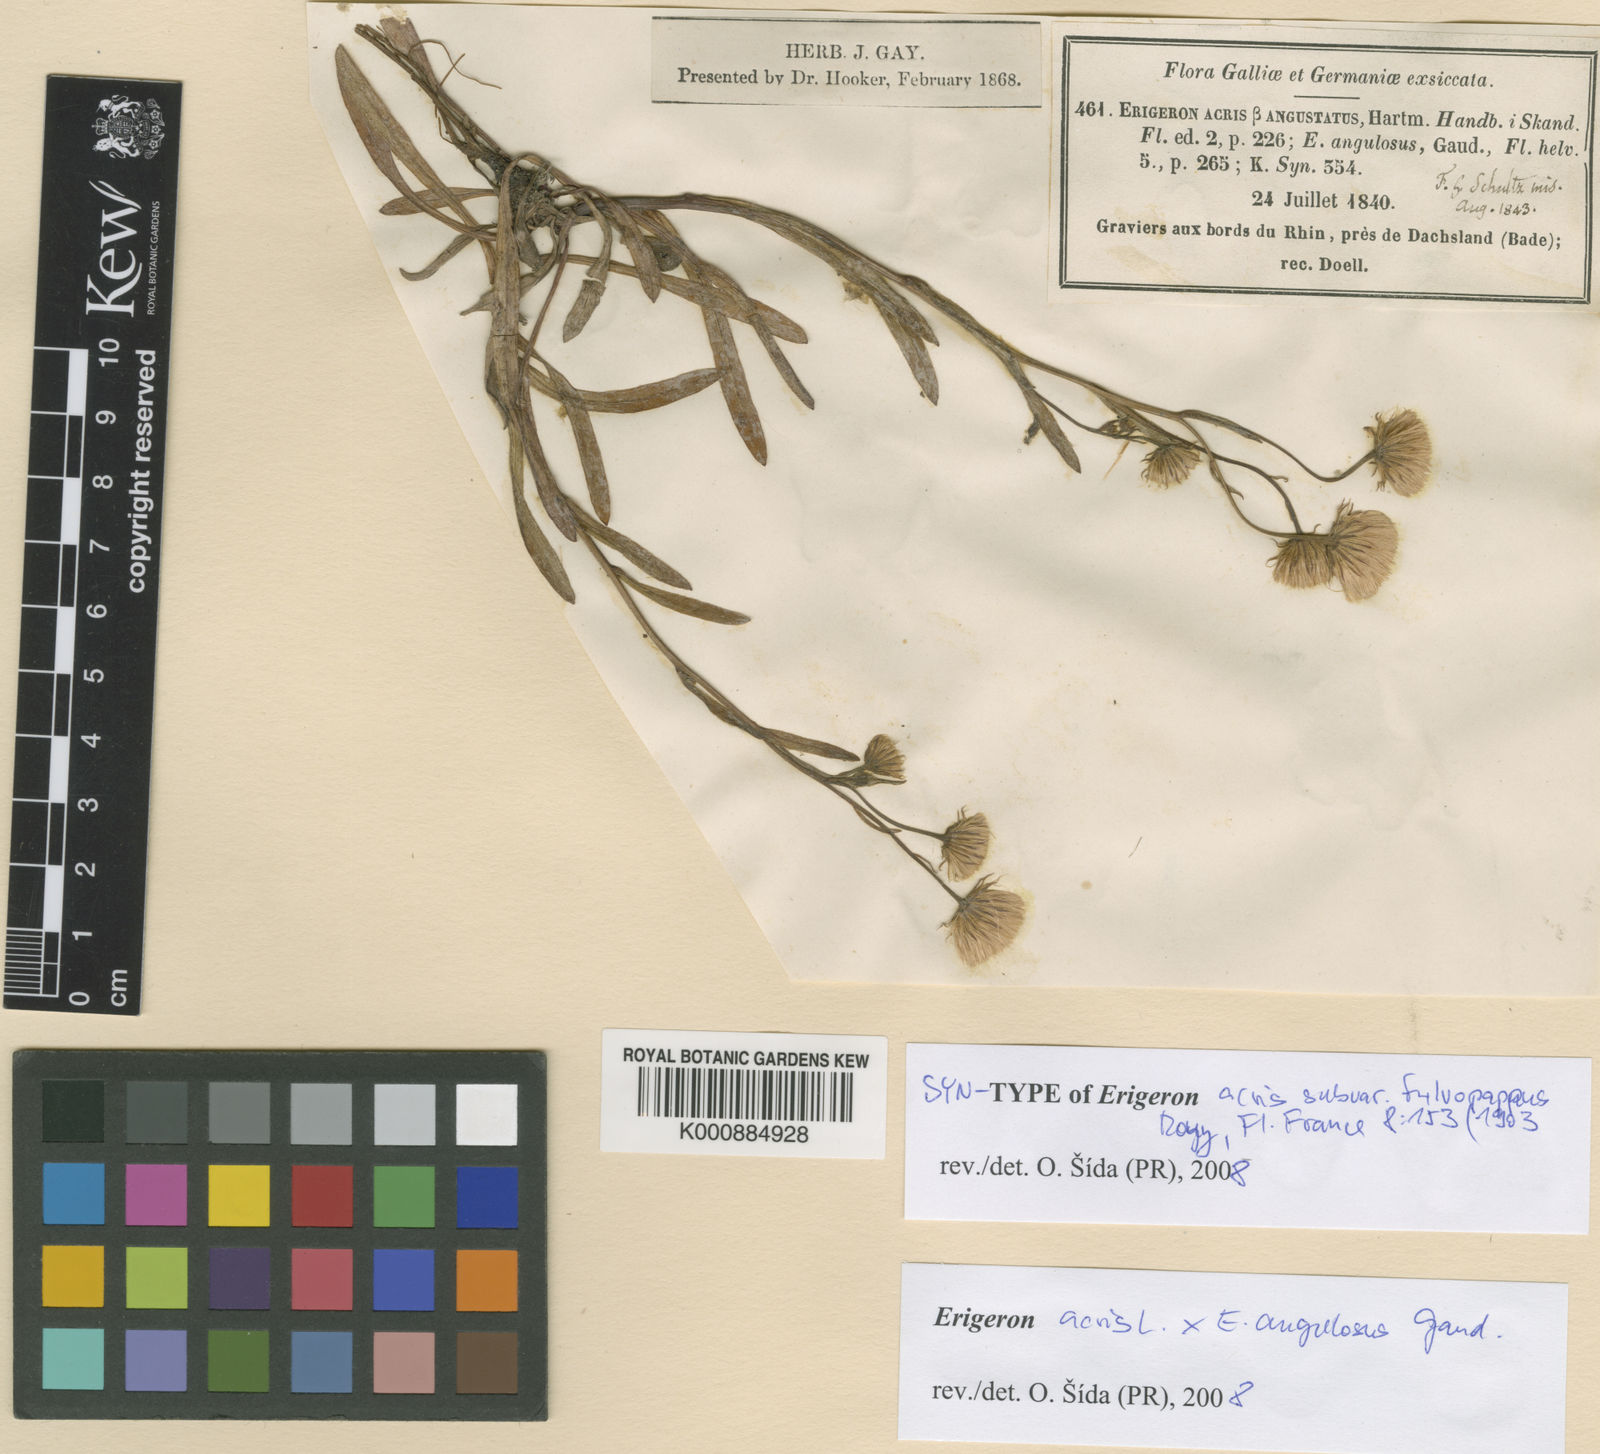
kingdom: Plantae
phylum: Tracheophyta
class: Magnoliopsida
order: Asterales
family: Asteraceae
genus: Erigeron
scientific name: Erigeron
